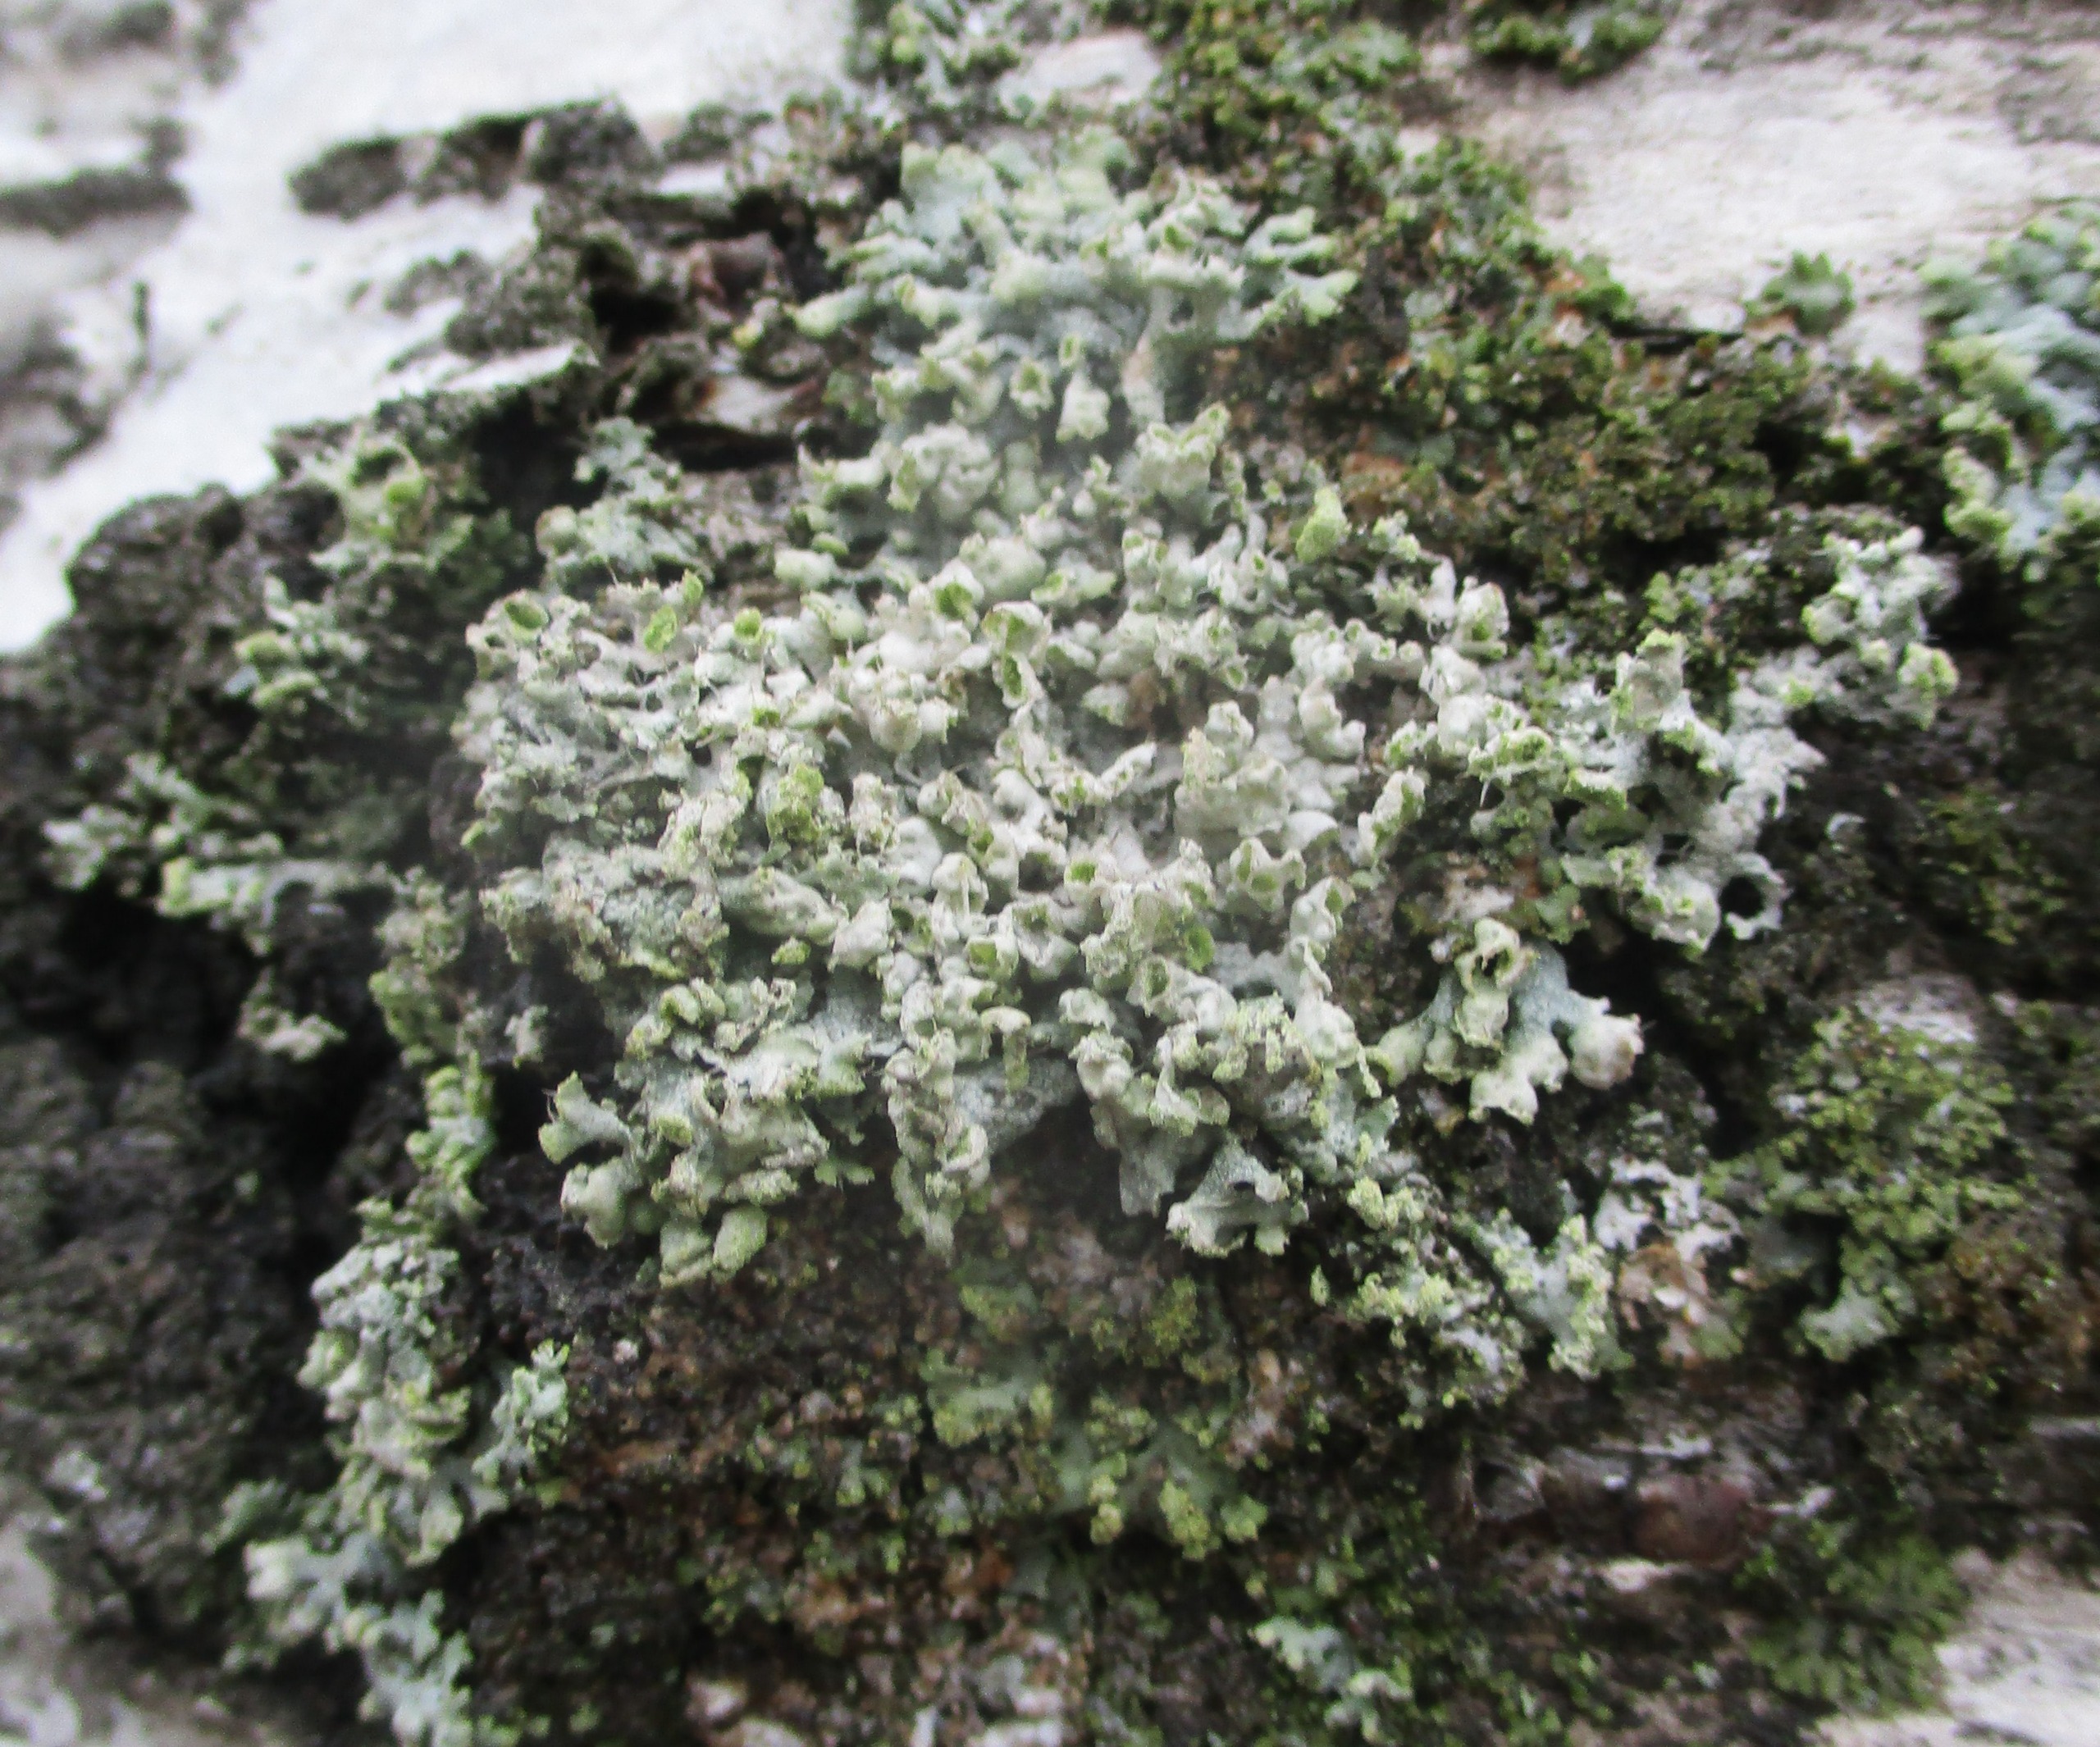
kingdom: Fungi
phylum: Ascomycota
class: Lecanoromycetes
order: Caliciales
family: Physciaceae
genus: Physcia
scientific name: Physcia adscendens
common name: Hætte-rosetlav
